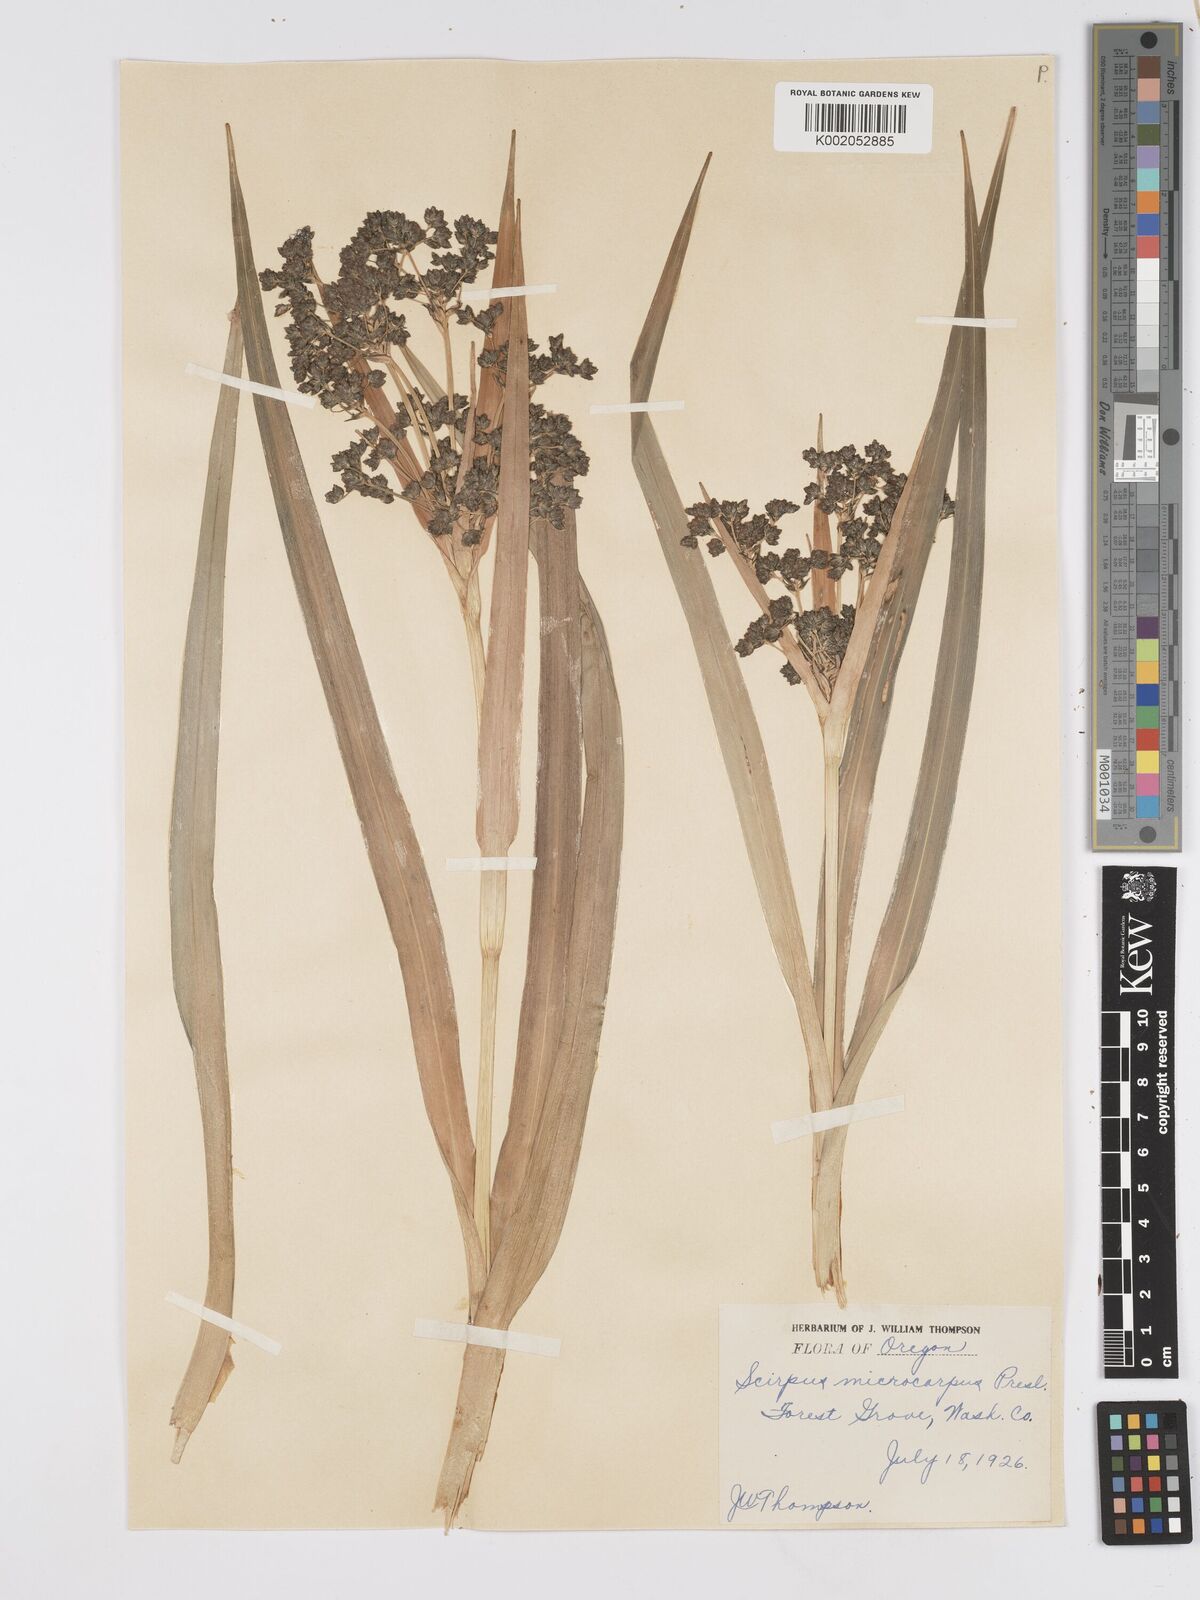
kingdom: Plantae
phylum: Tracheophyta
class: Liliopsida
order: Poales
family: Cyperaceae
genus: Scirpus
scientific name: Scirpus microcarpus
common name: Panicled bulrush
